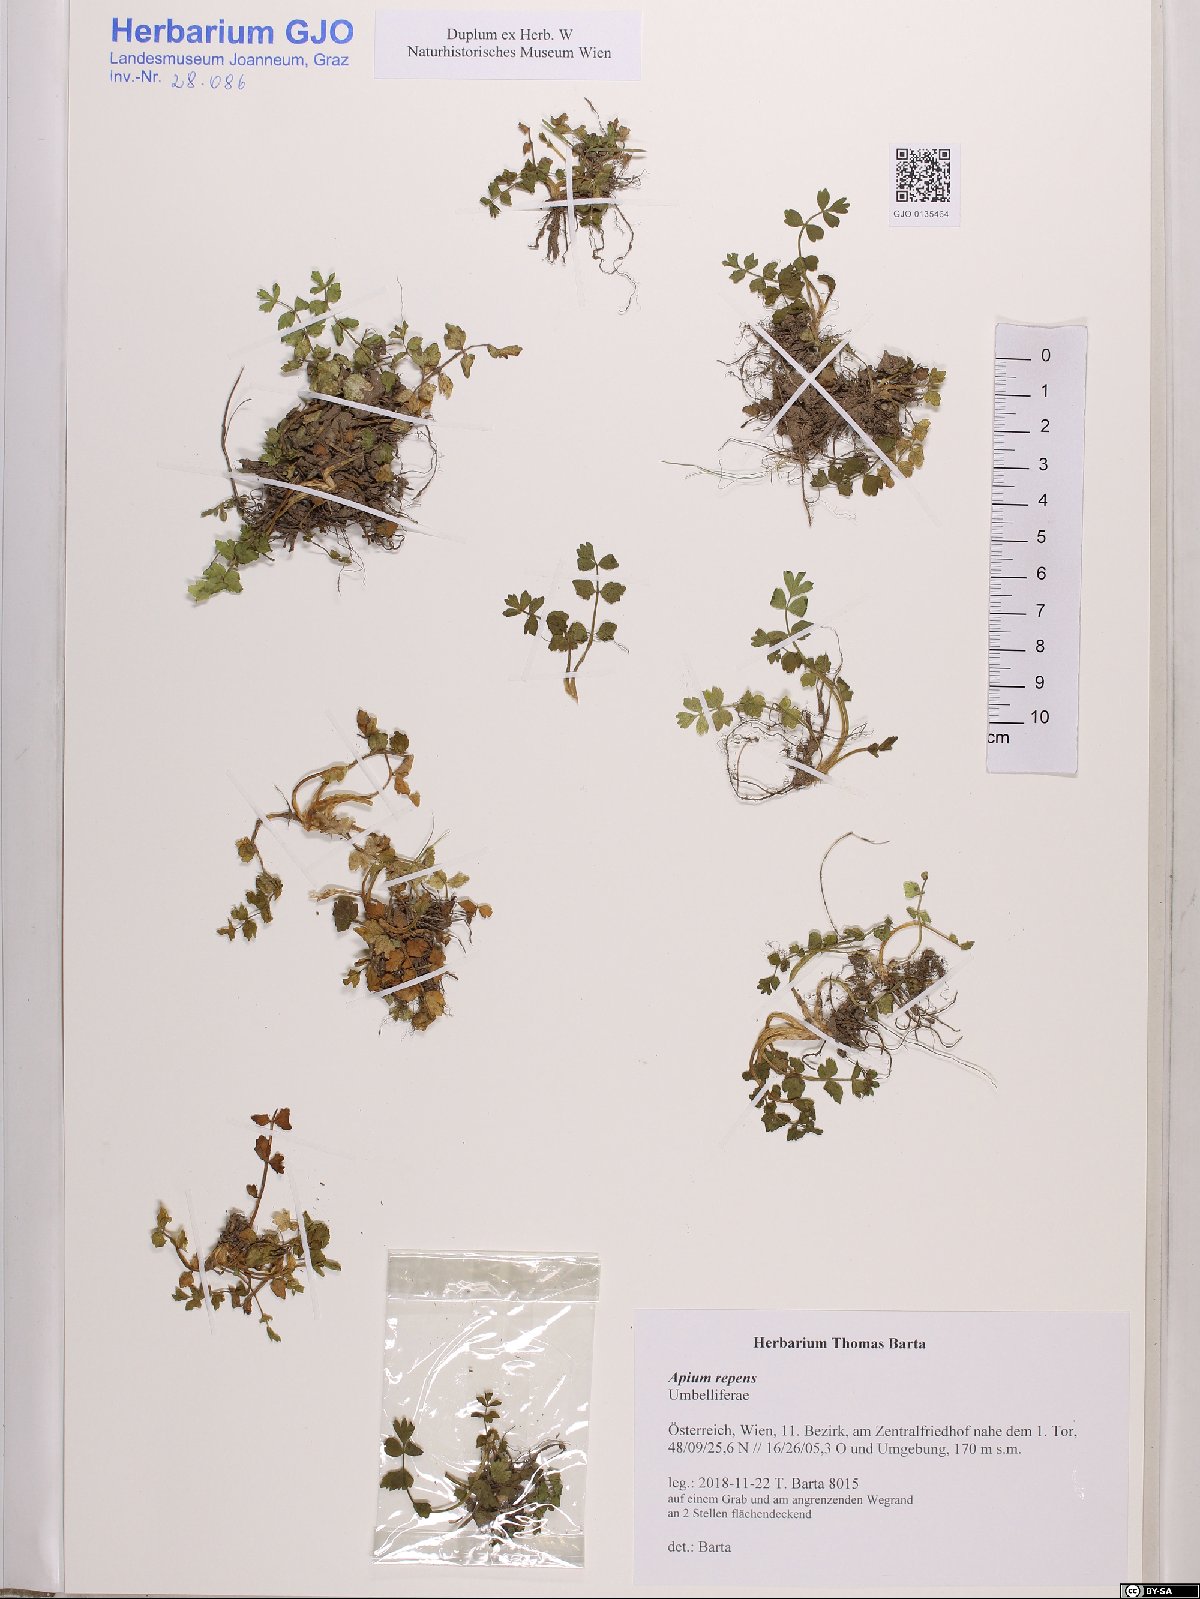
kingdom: Plantae
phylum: Tracheophyta
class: Magnoliopsida
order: Apiales
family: Apiaceae
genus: Helosciadium
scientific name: Helosciadium repens
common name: Creeping marshwort
